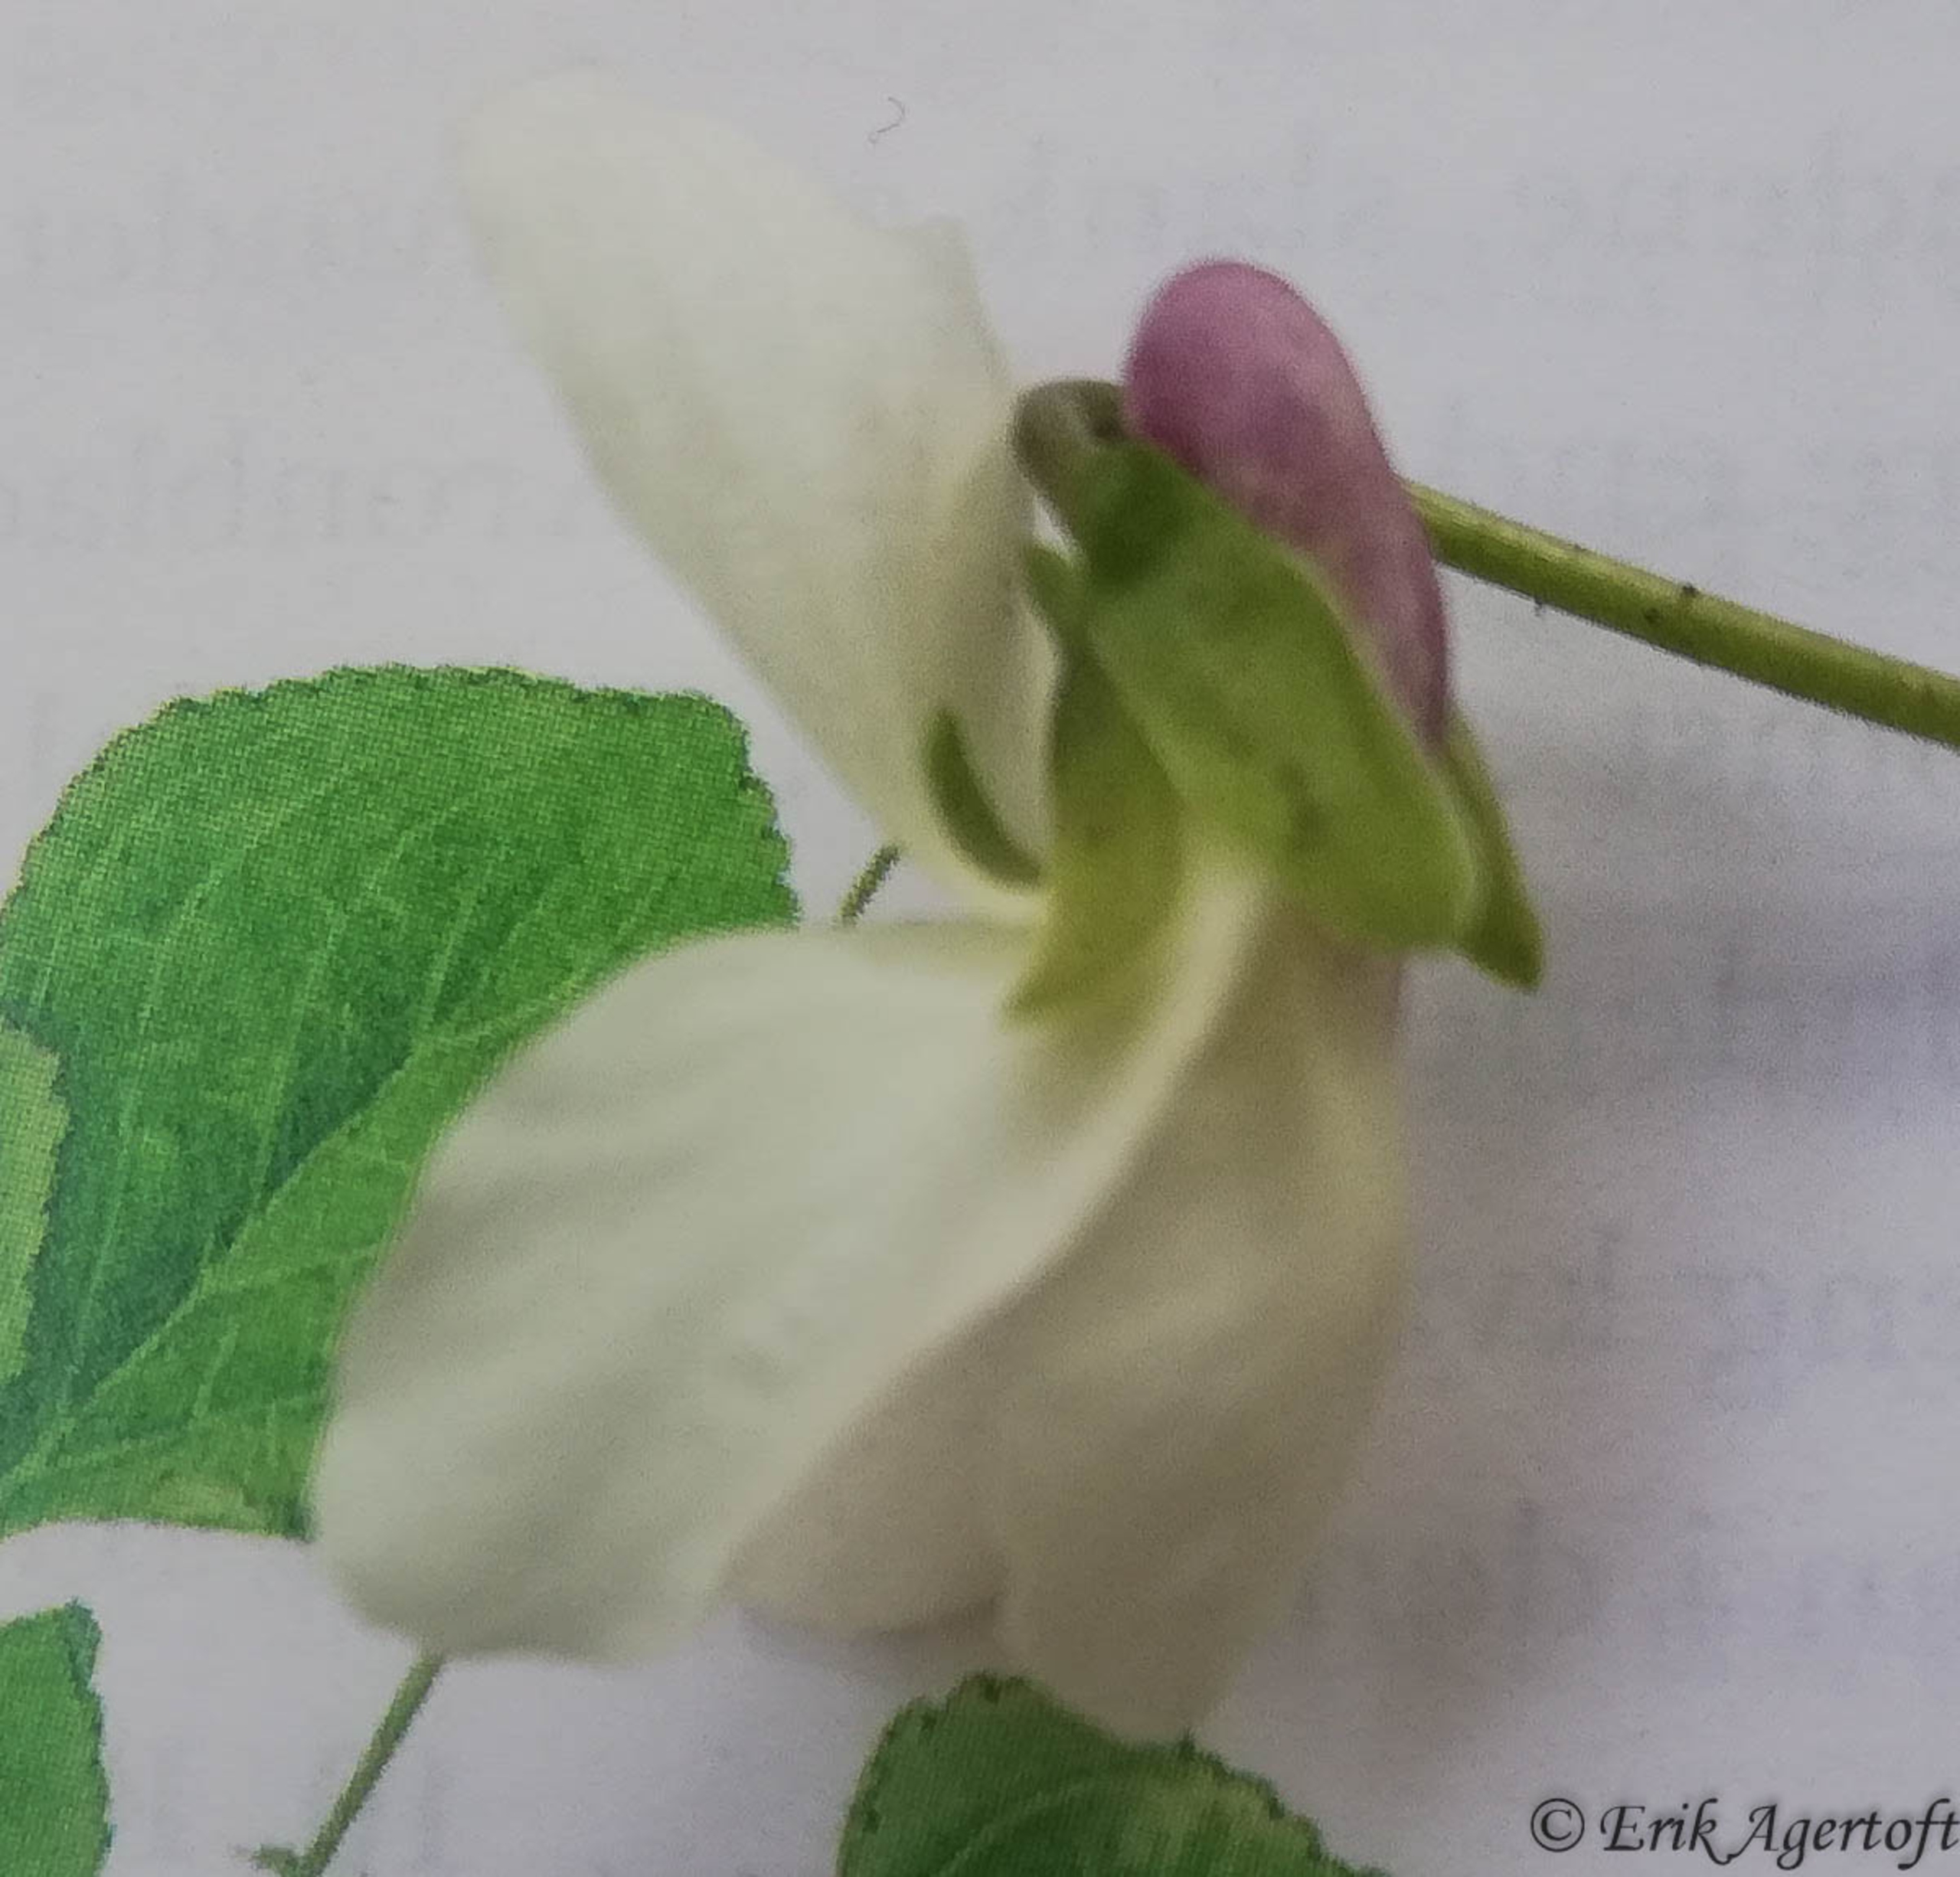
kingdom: Plantae
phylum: Tracheophyta
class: Magnoliopsida
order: Malpighiales
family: Violaceae
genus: Viola
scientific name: Viola odorata
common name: Marts-viol
